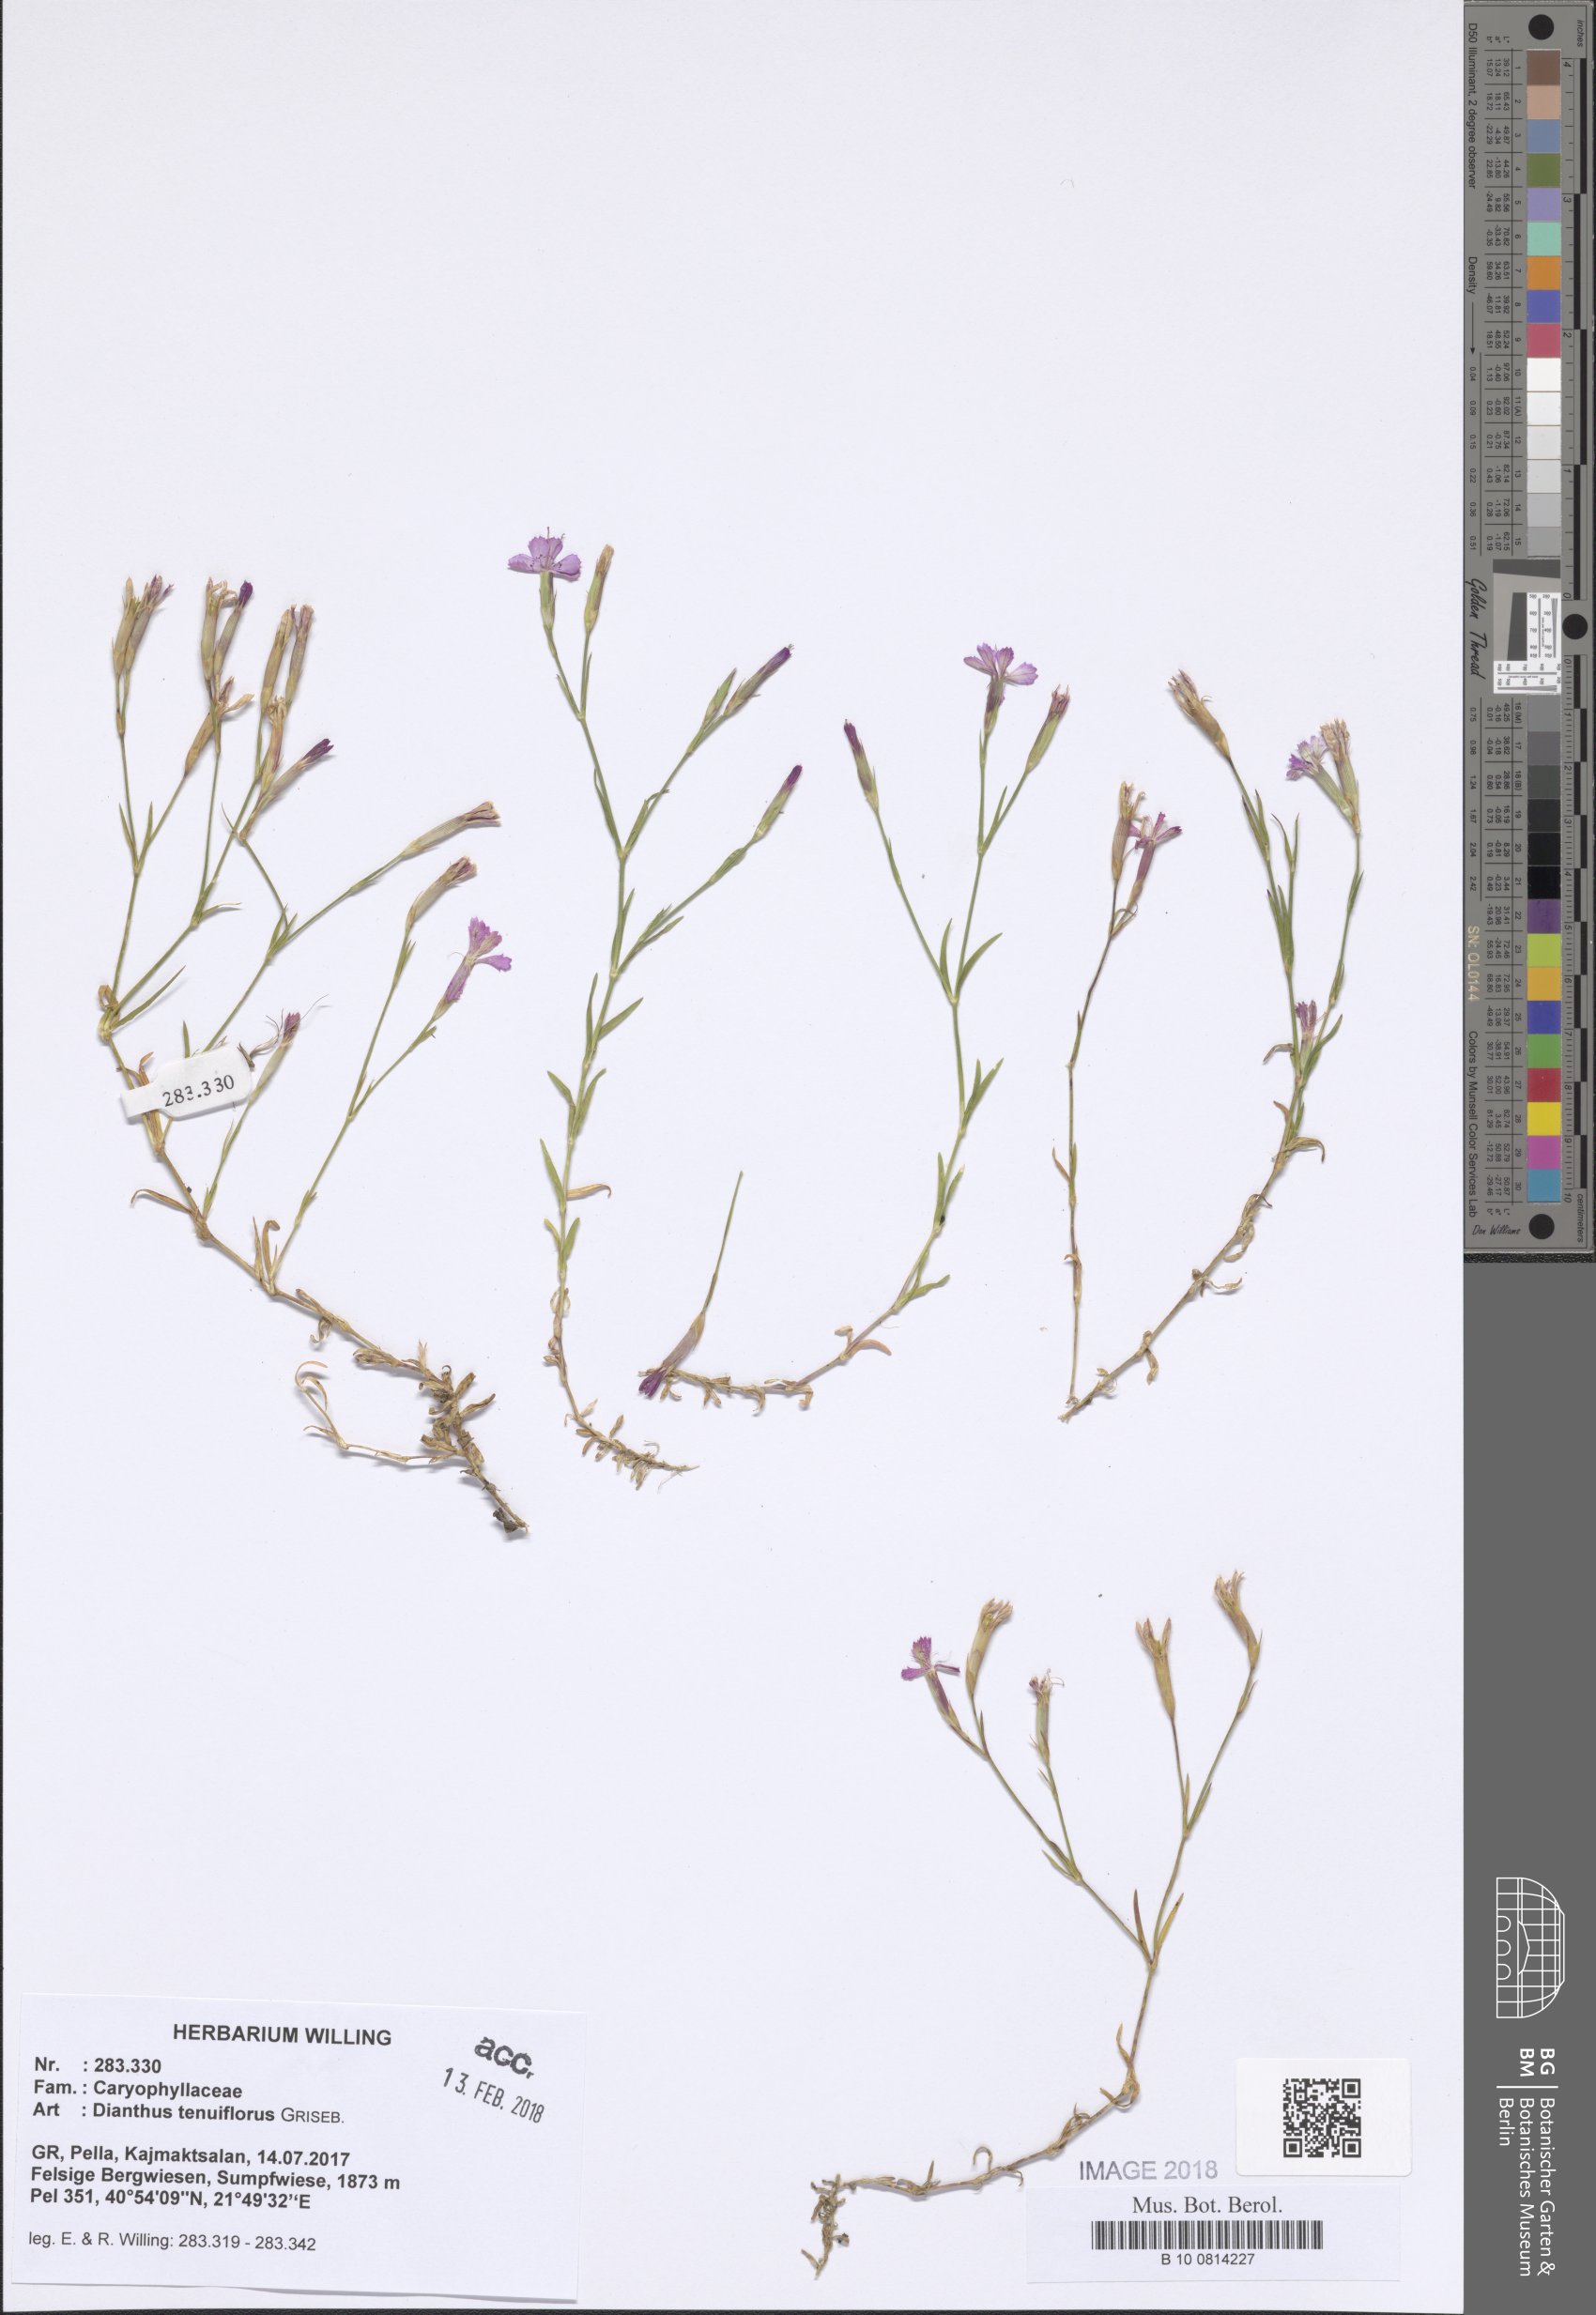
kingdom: Plantae
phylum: Tracheophyta
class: Magnoliopsida
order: Caryophyllales
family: Caryophyllaceae
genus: Dianthus
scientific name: Dianthus deltoides
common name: Maiden pink
